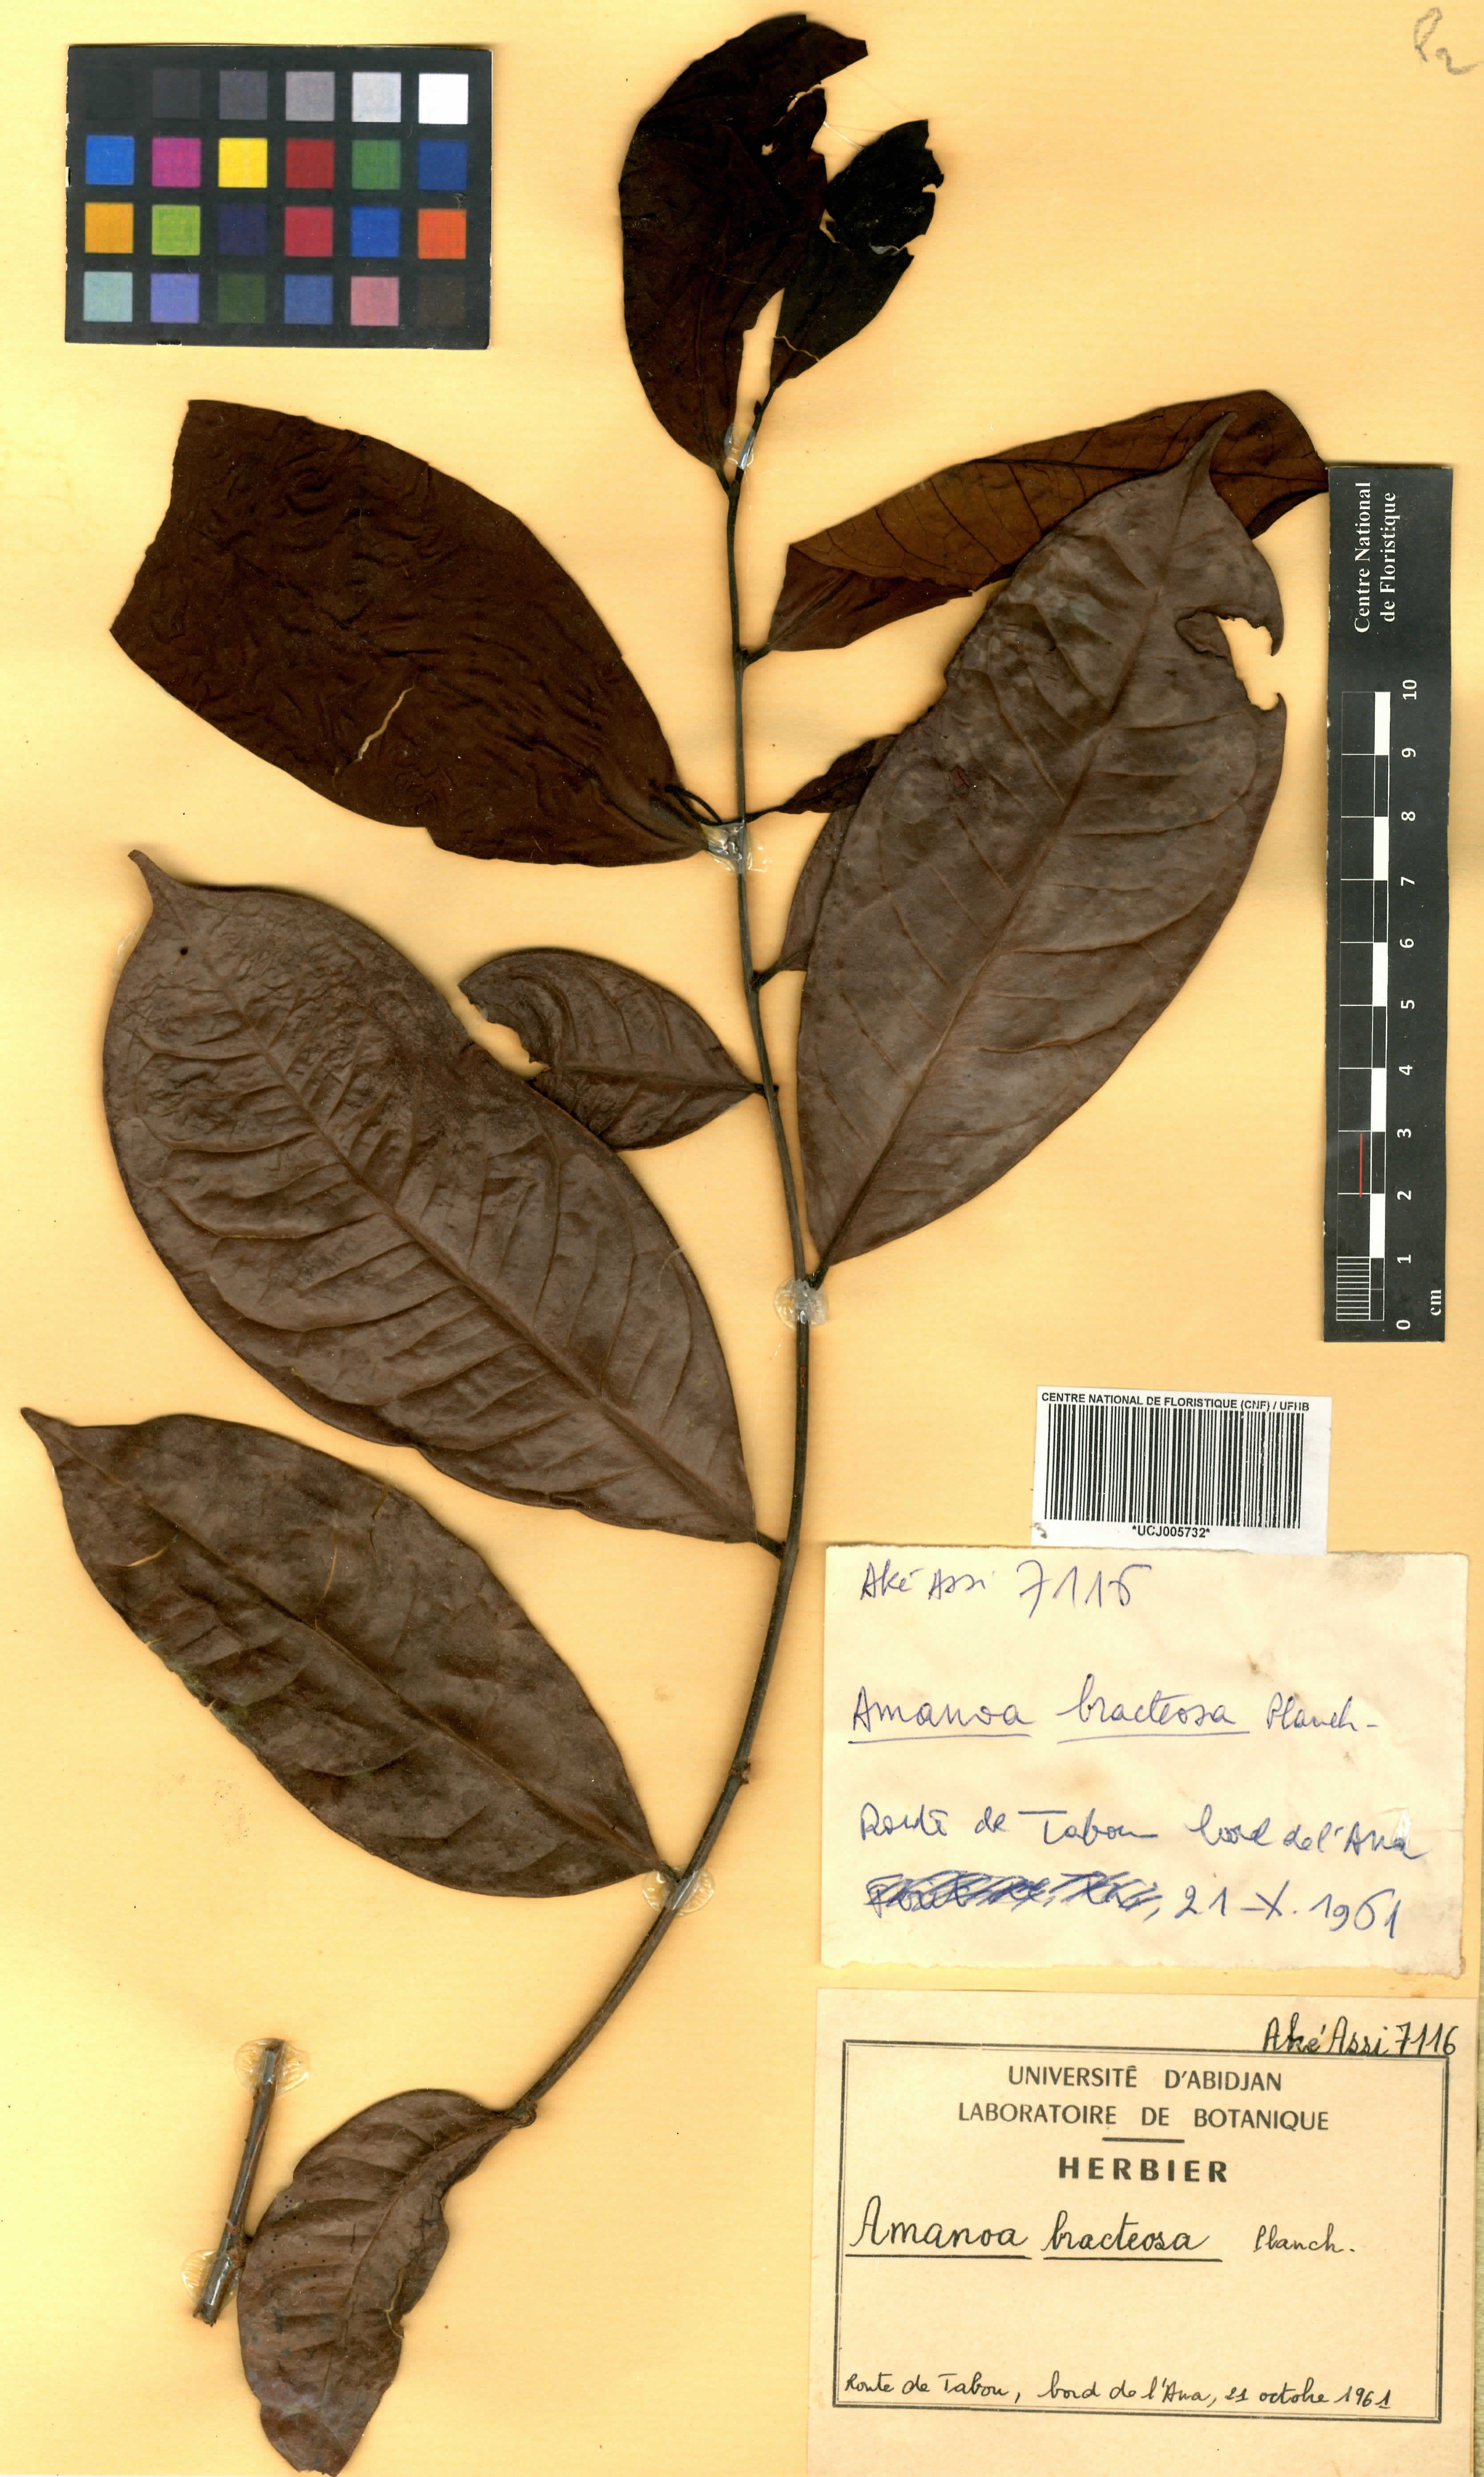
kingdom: Plantae
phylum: Tracheophyta
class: Magnoliopsida
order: Malpighiales
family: Phyllanthaceae
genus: Amanoa
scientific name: Amanoa bracteosa
